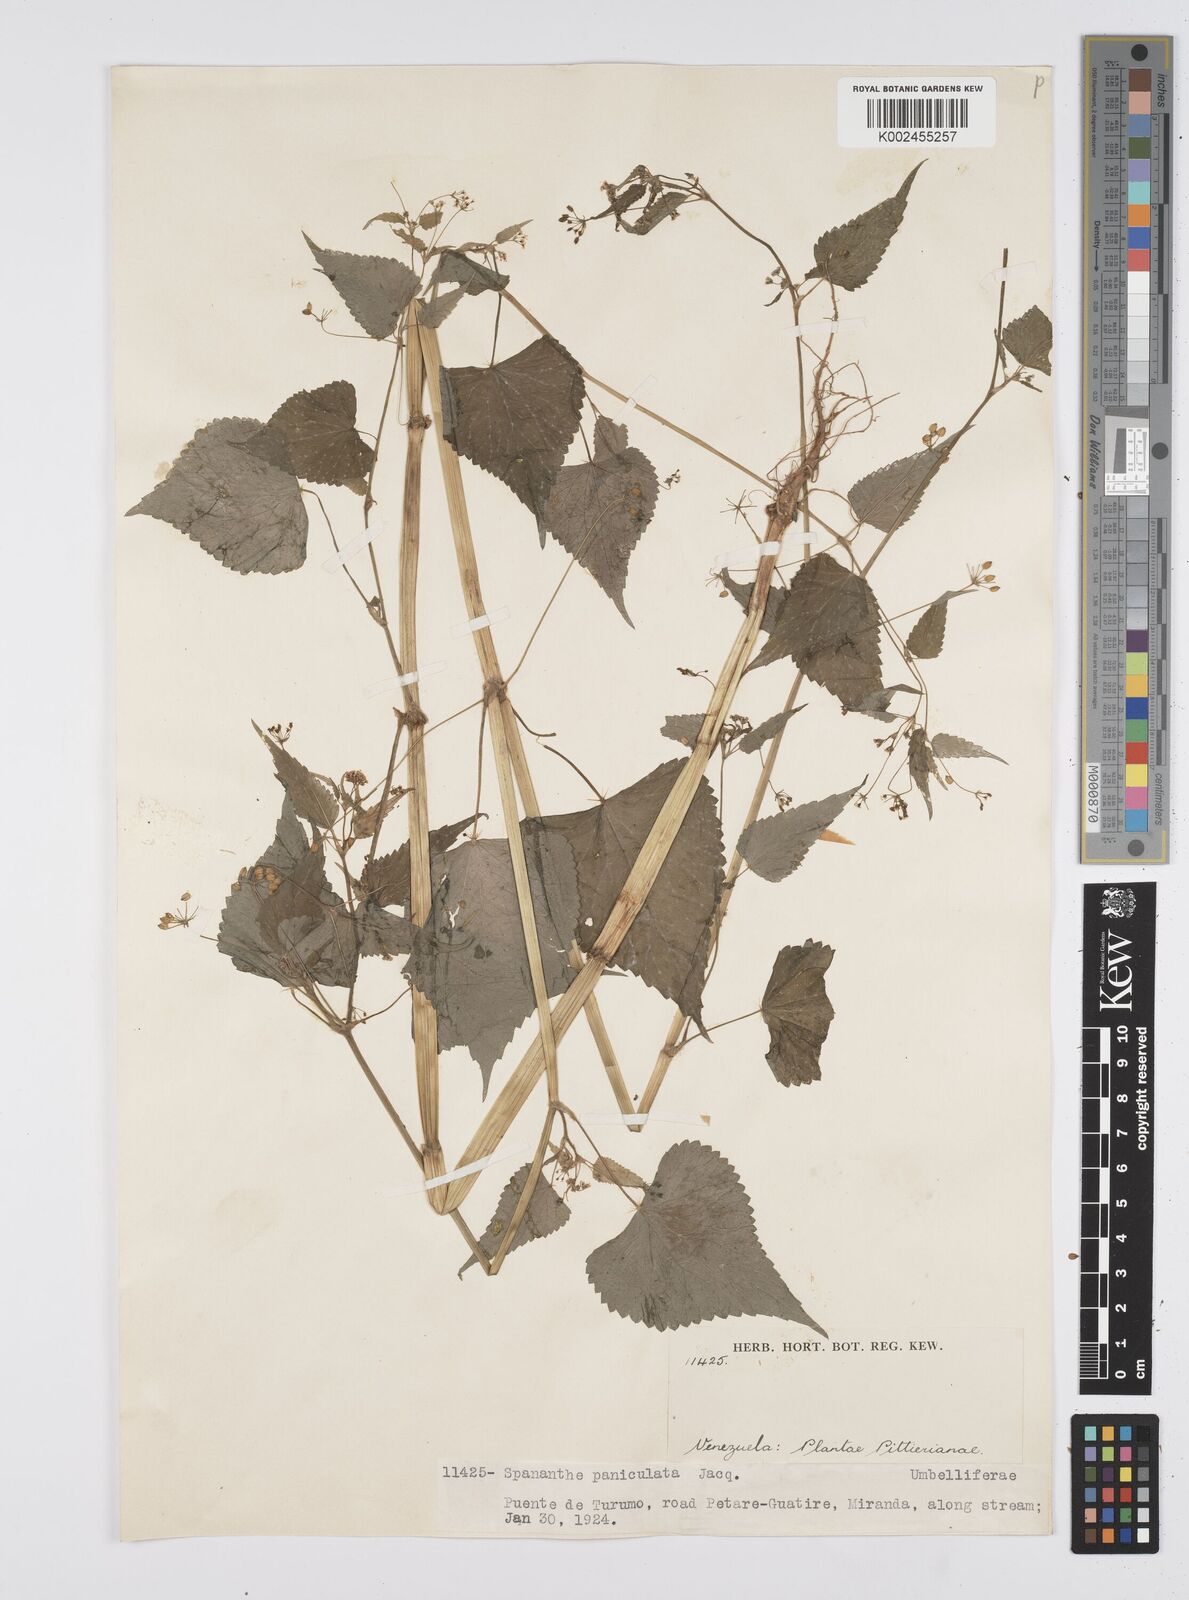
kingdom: Plantae
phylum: Tracheophyta
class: Magnoliopsida
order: Apiales
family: Apiaceae
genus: Azorella
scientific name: Azorella
